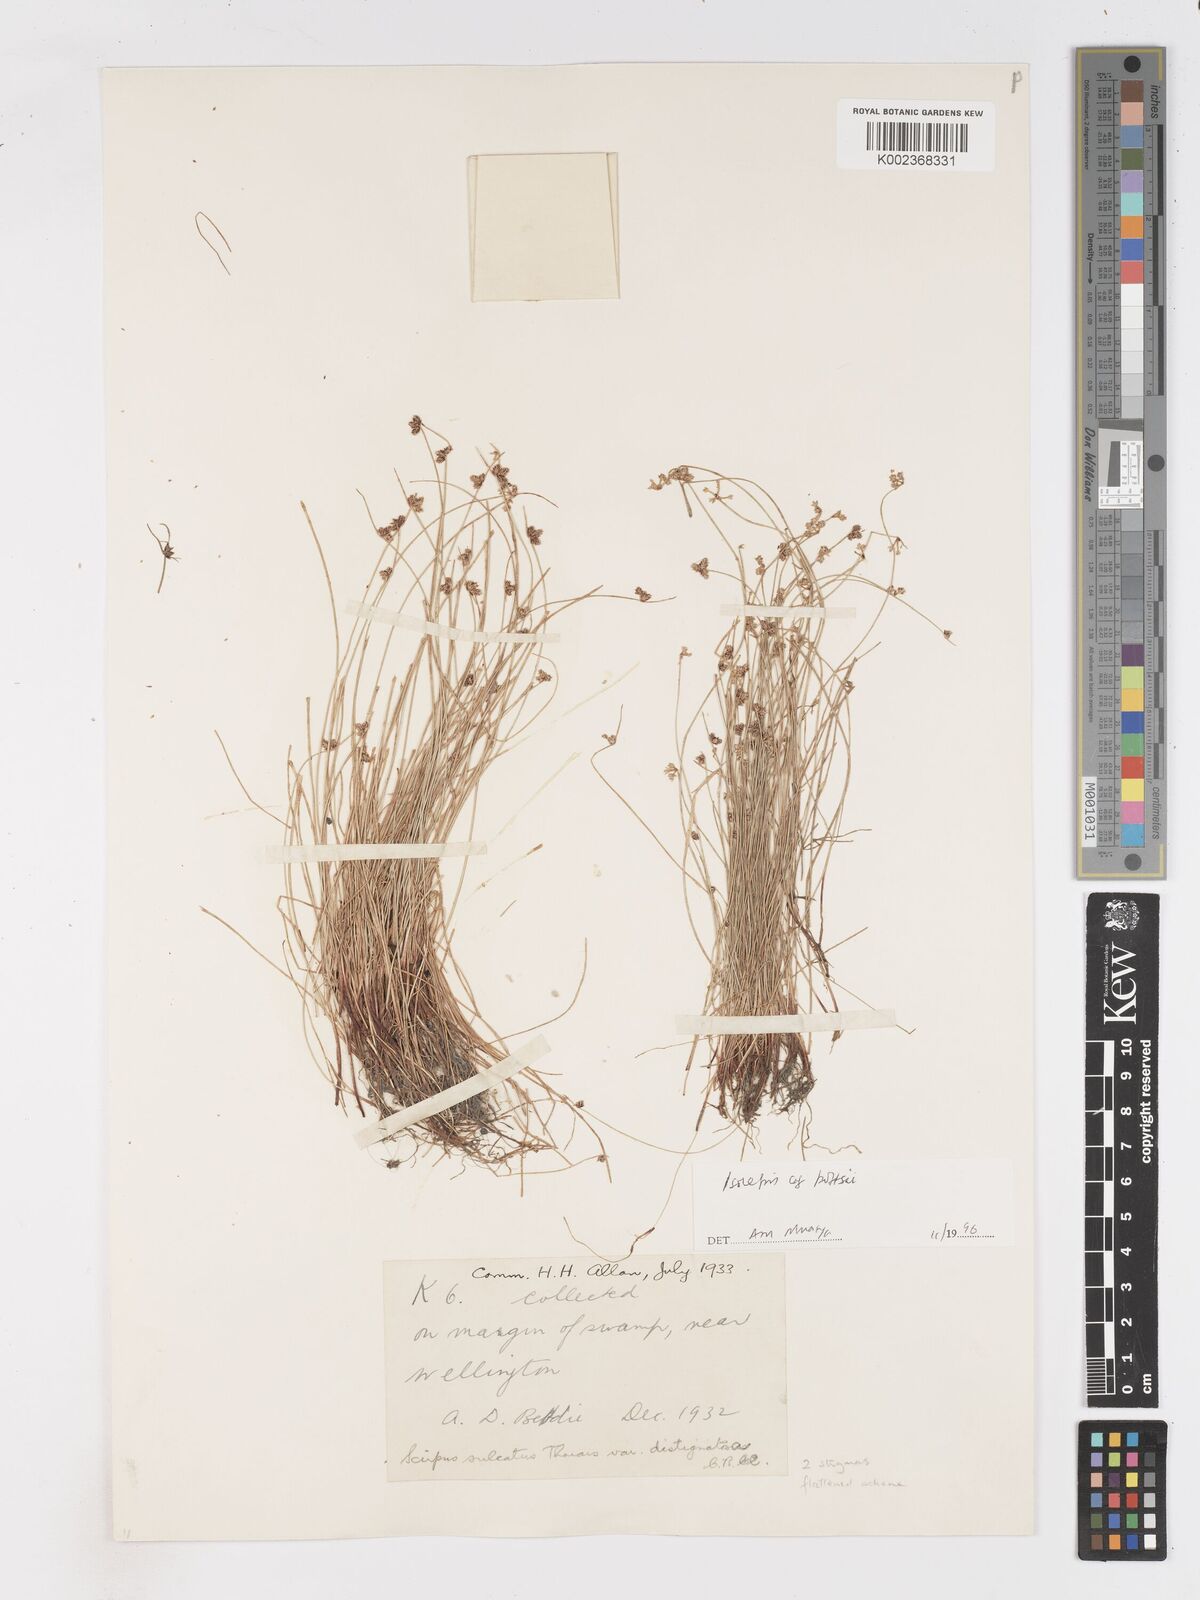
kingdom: Plantae
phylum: Tracheophyta
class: Liliopsida
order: Poales
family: Cyperaceae
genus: Isolepis
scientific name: Isolepis pottsii
